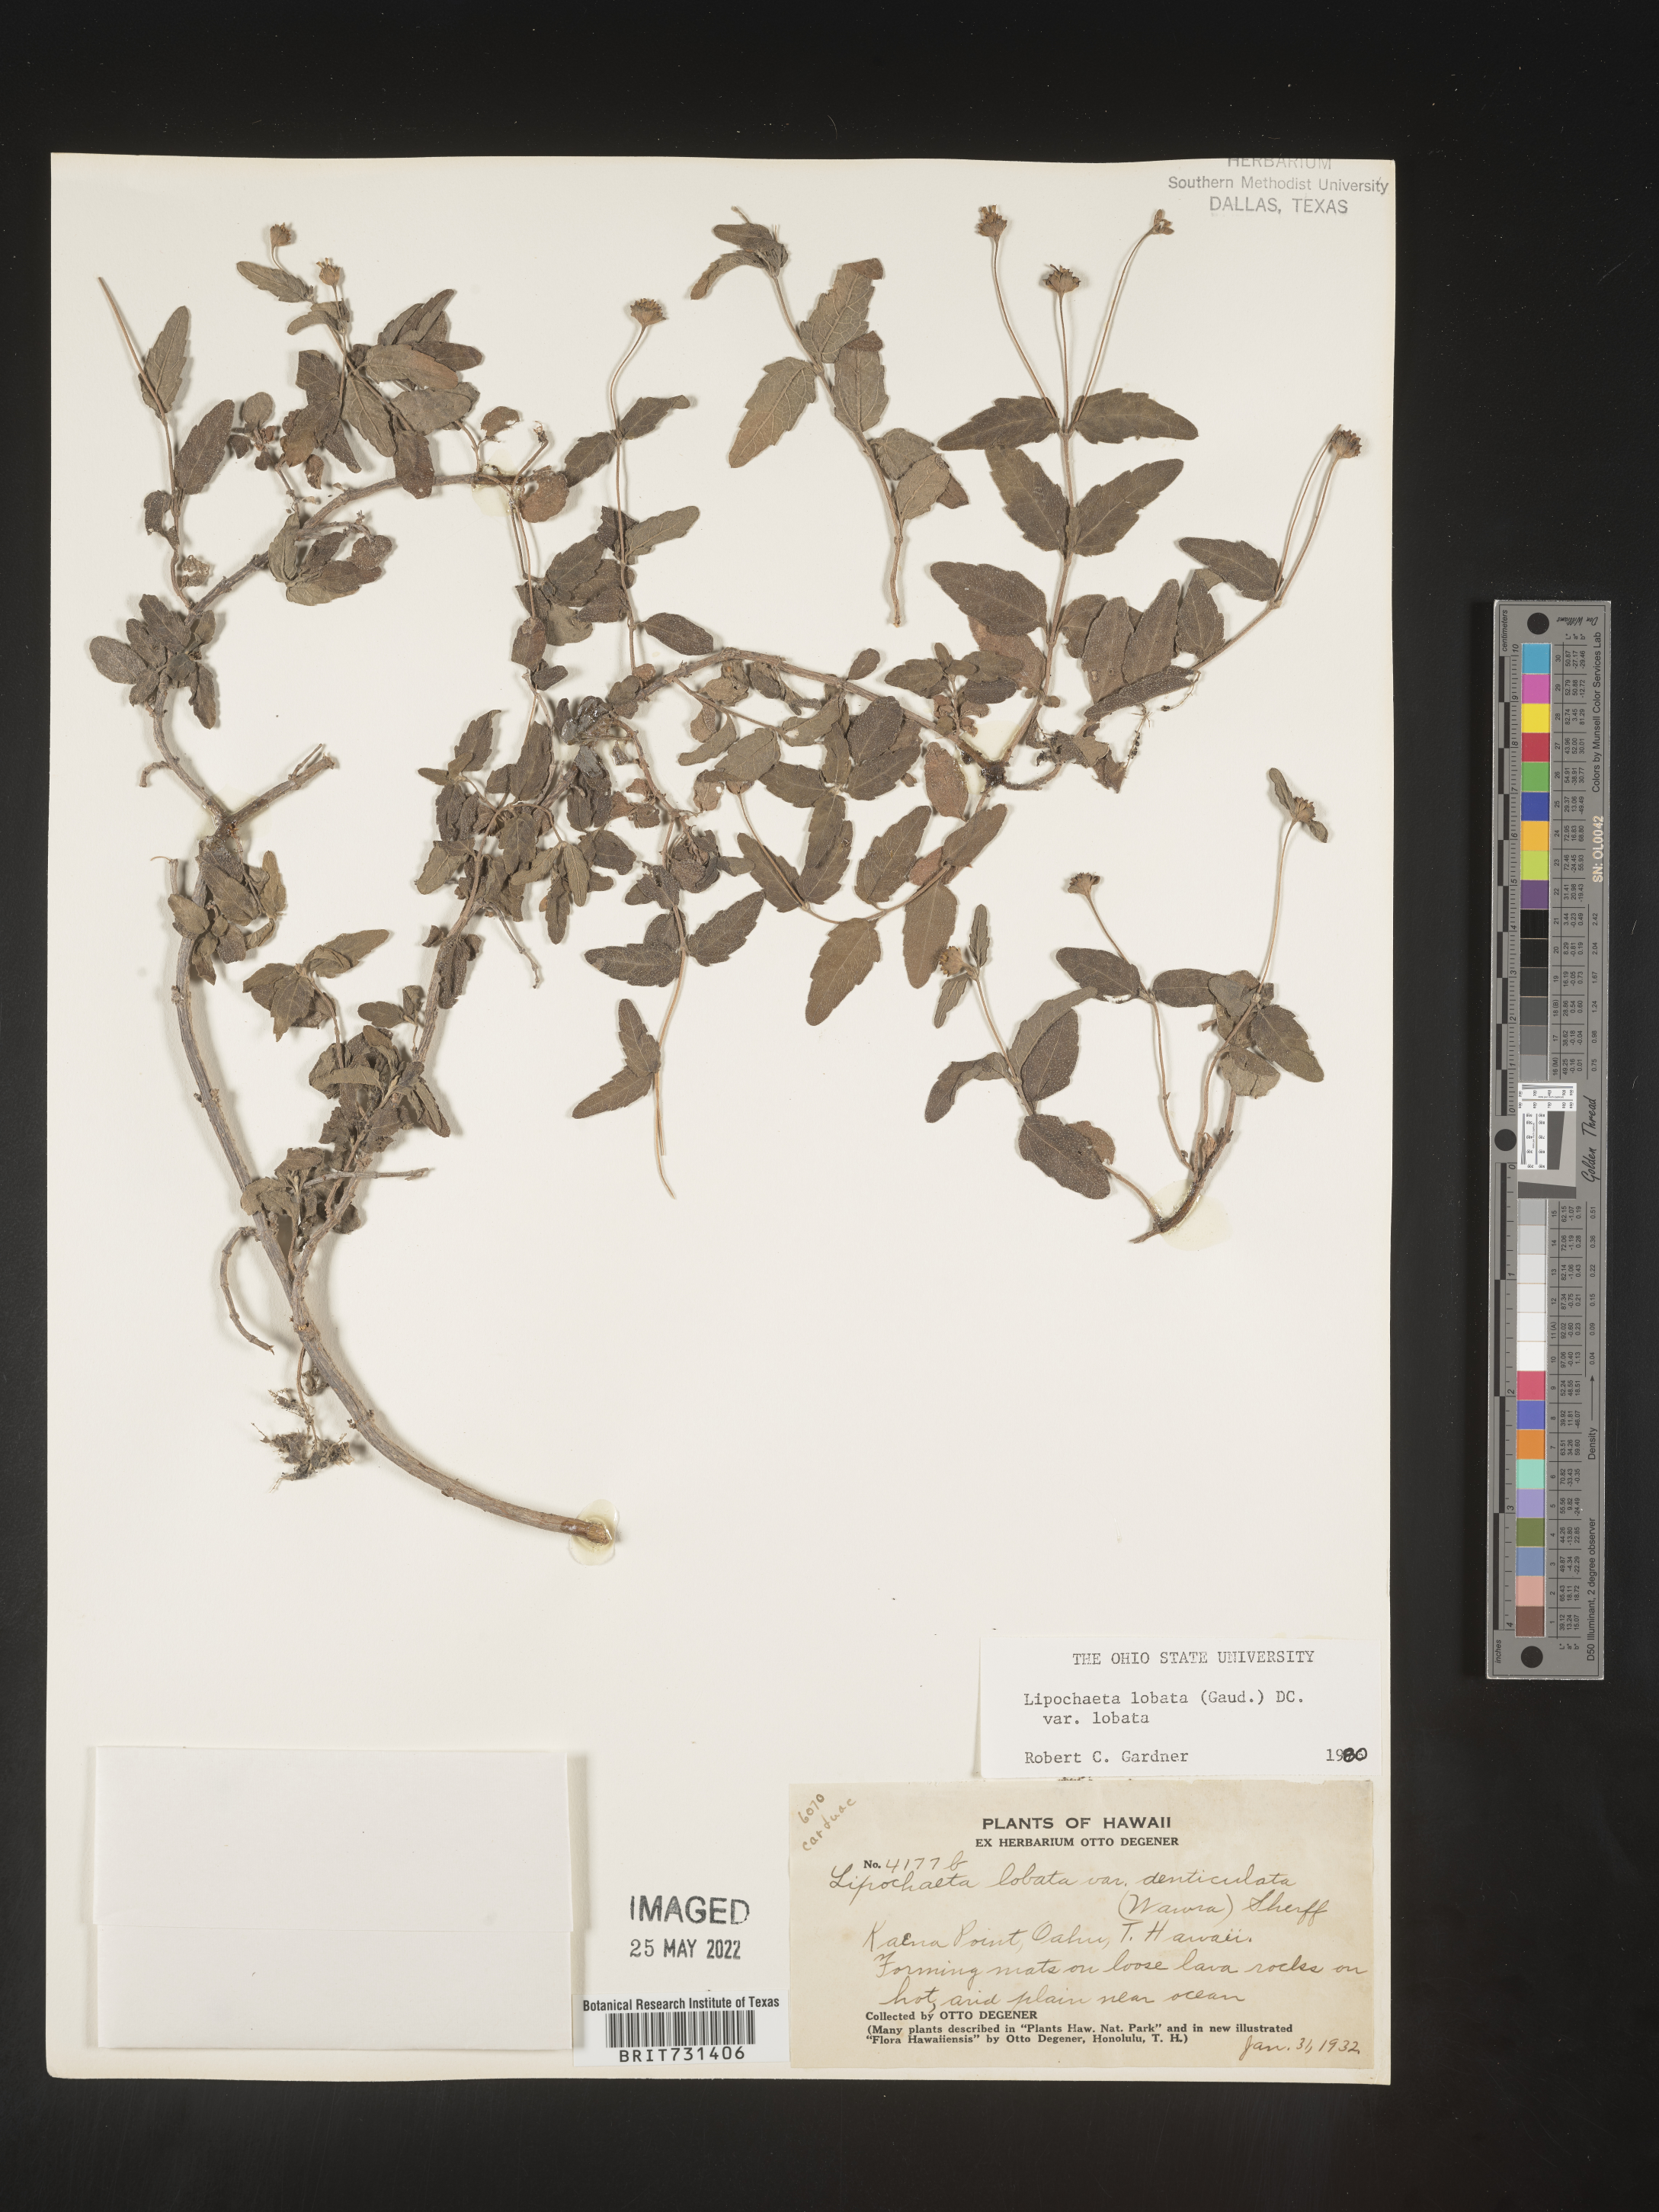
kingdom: Plantae
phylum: Tracheophyta
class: Magnoliopsida
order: Asterales
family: Asteraceae
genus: Lipochaeta
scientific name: Lipochaeta
